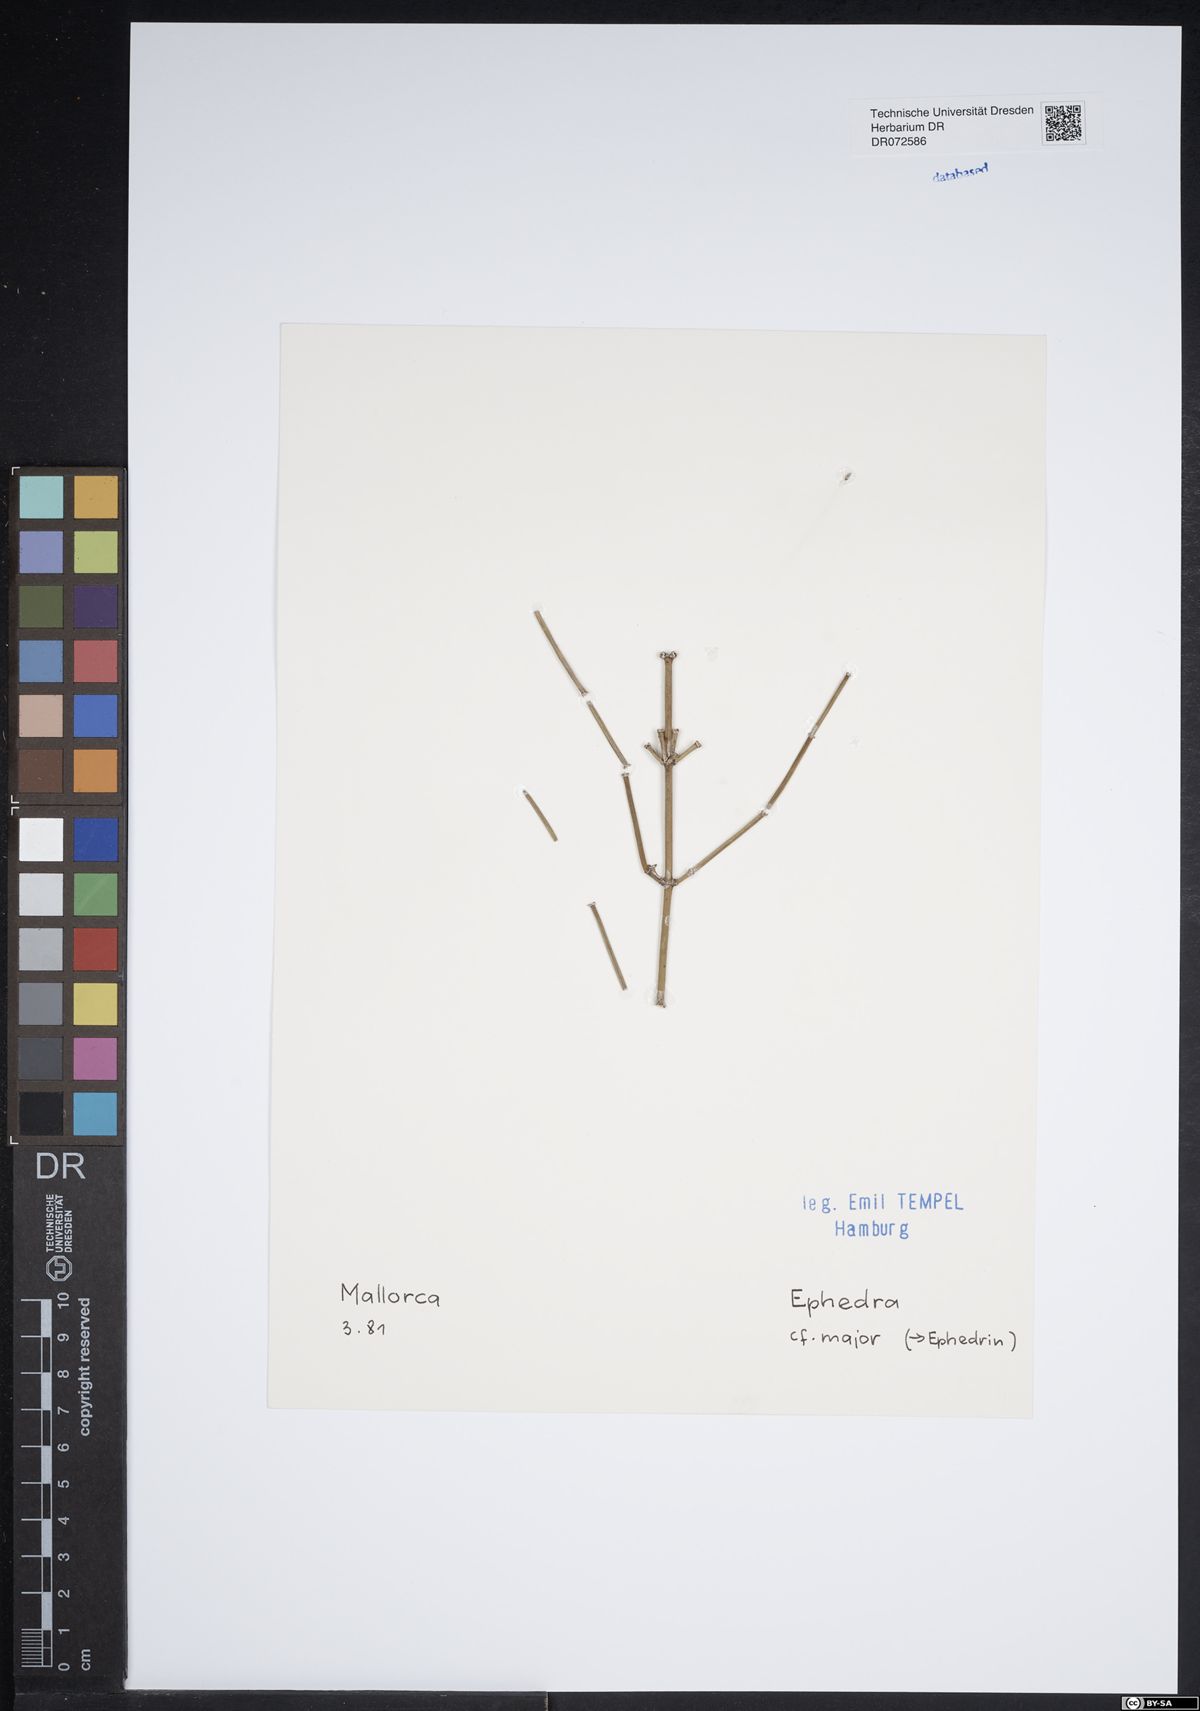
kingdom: Plantae
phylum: Tracheophyta
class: Gnetopsida
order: Ephedrales
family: Ephedraceae
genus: Ephedra
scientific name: Ephedra foeminea
